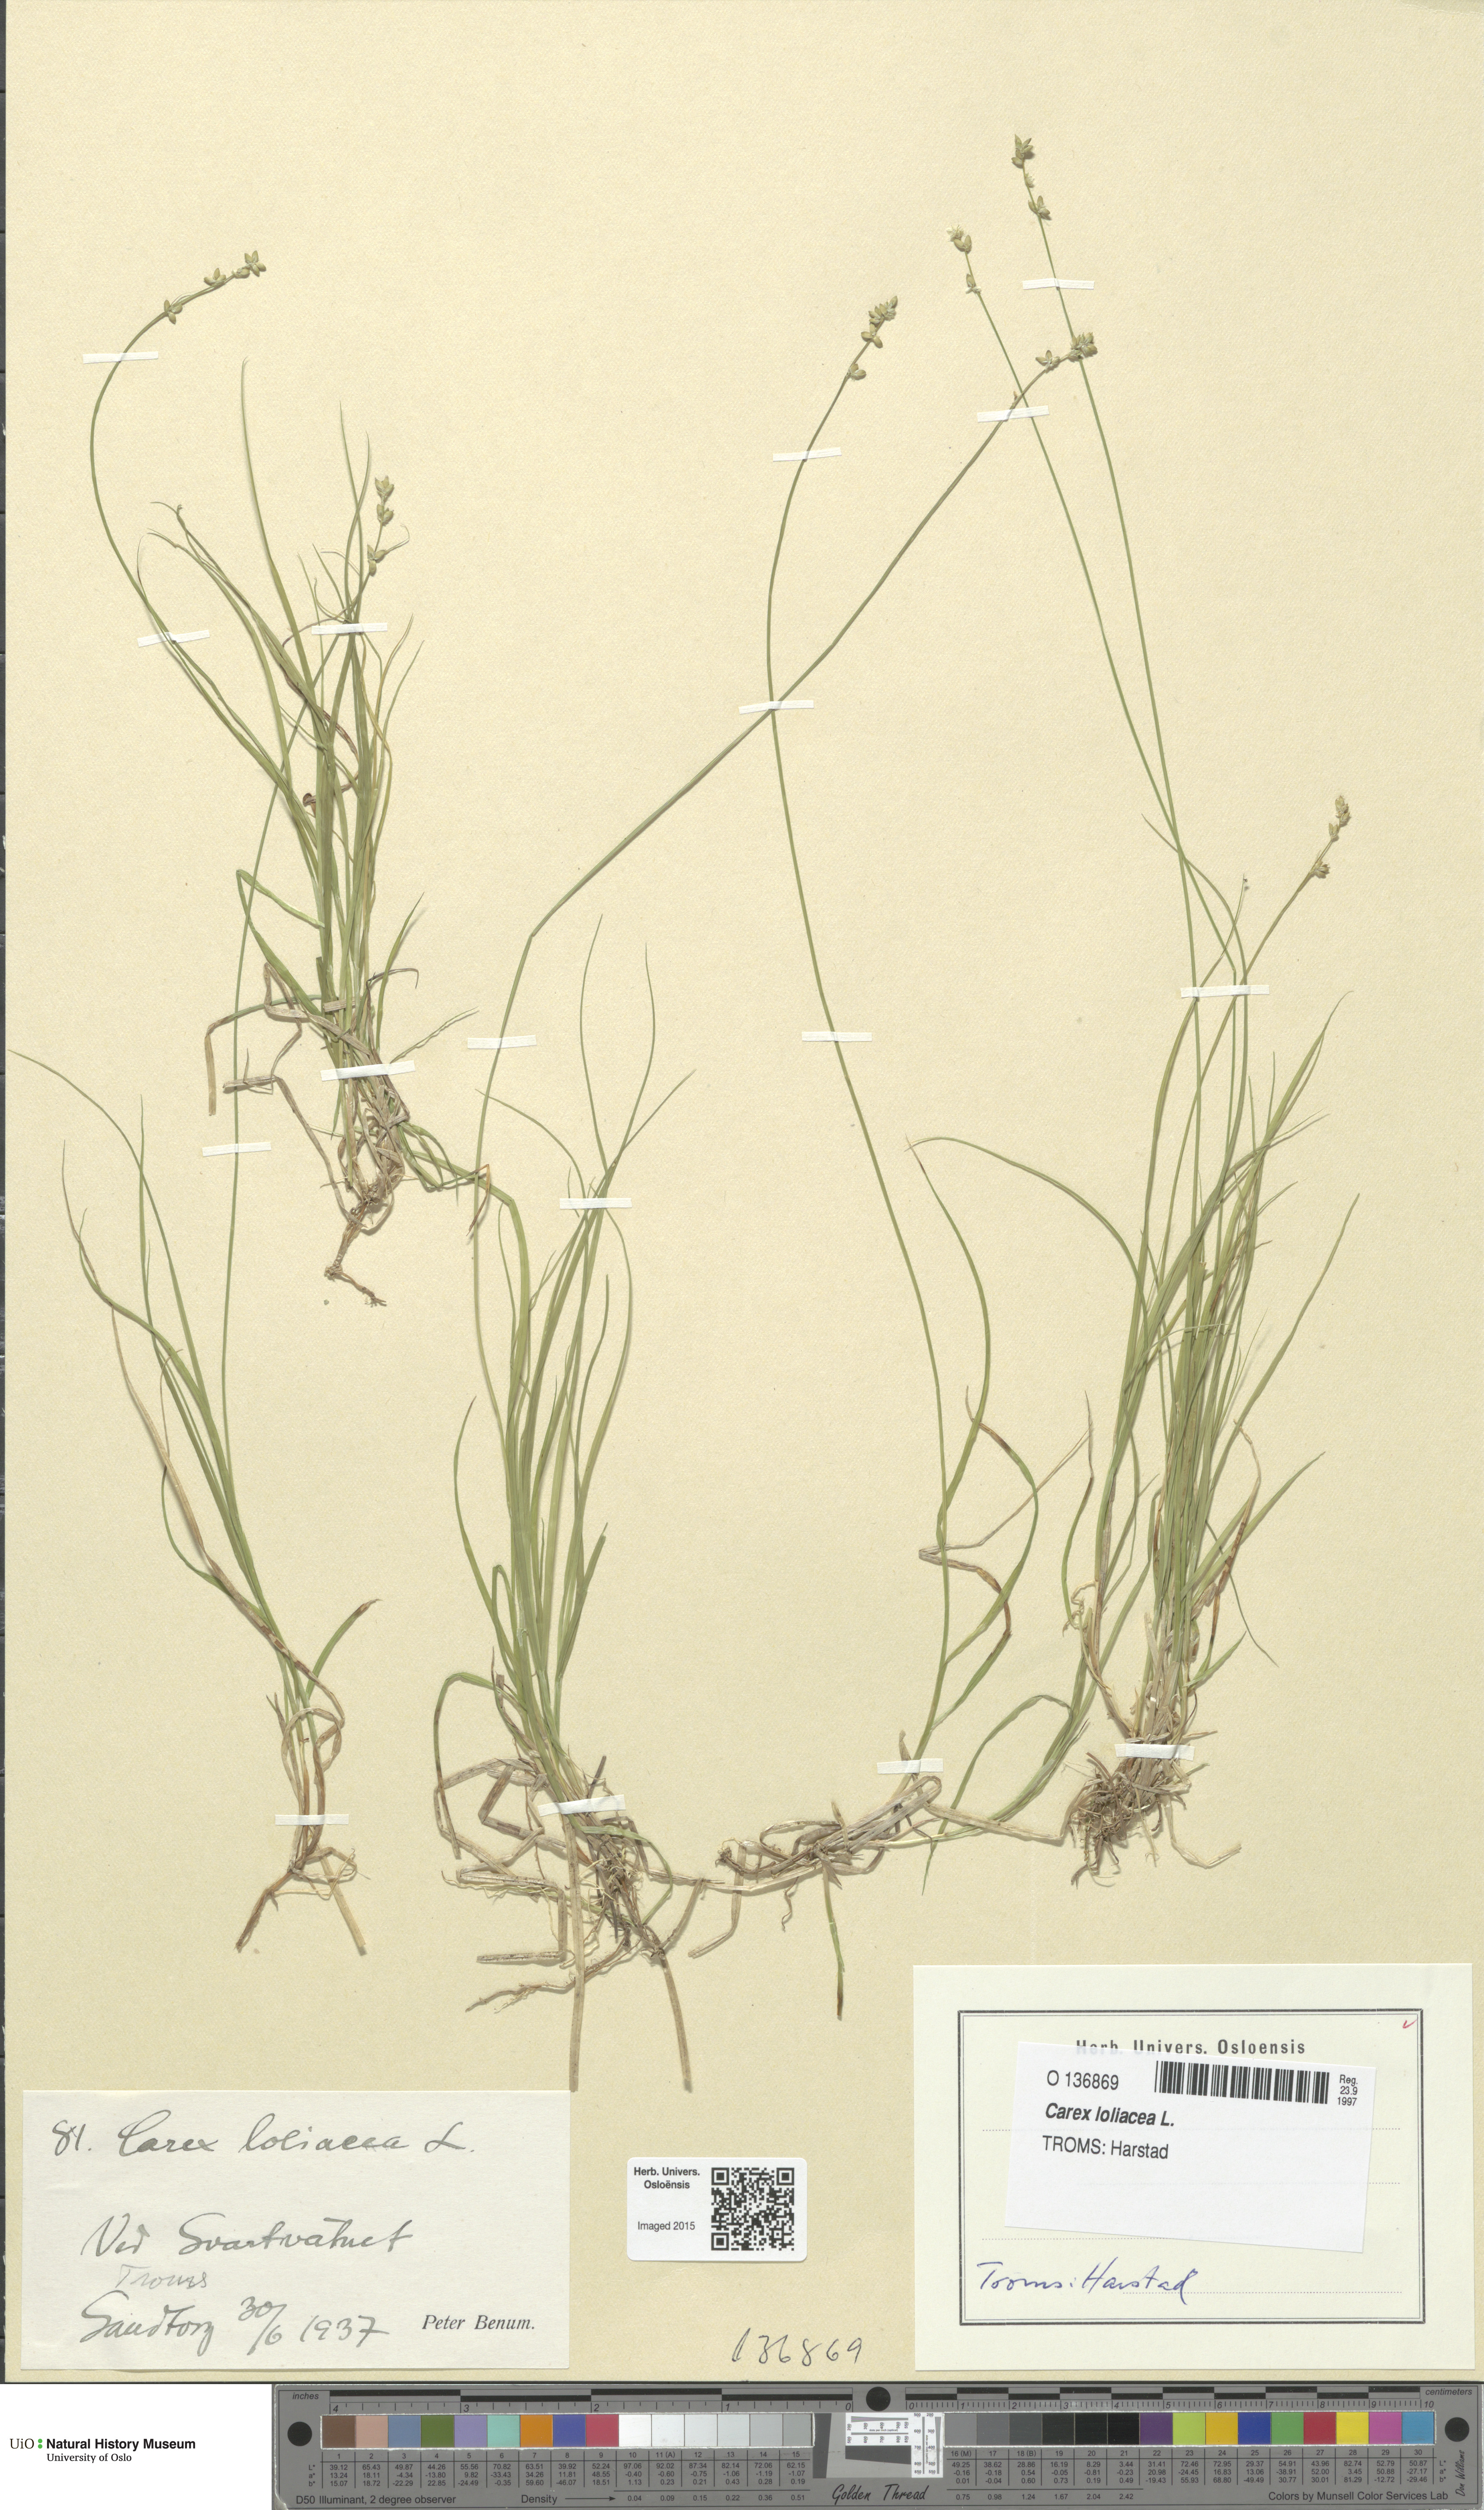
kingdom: Plantae
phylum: Tracheophyta
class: Liliopsida
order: Poales
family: Cyperaceae
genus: Carex
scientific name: Carex loliacea
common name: Ryegrass sedge
